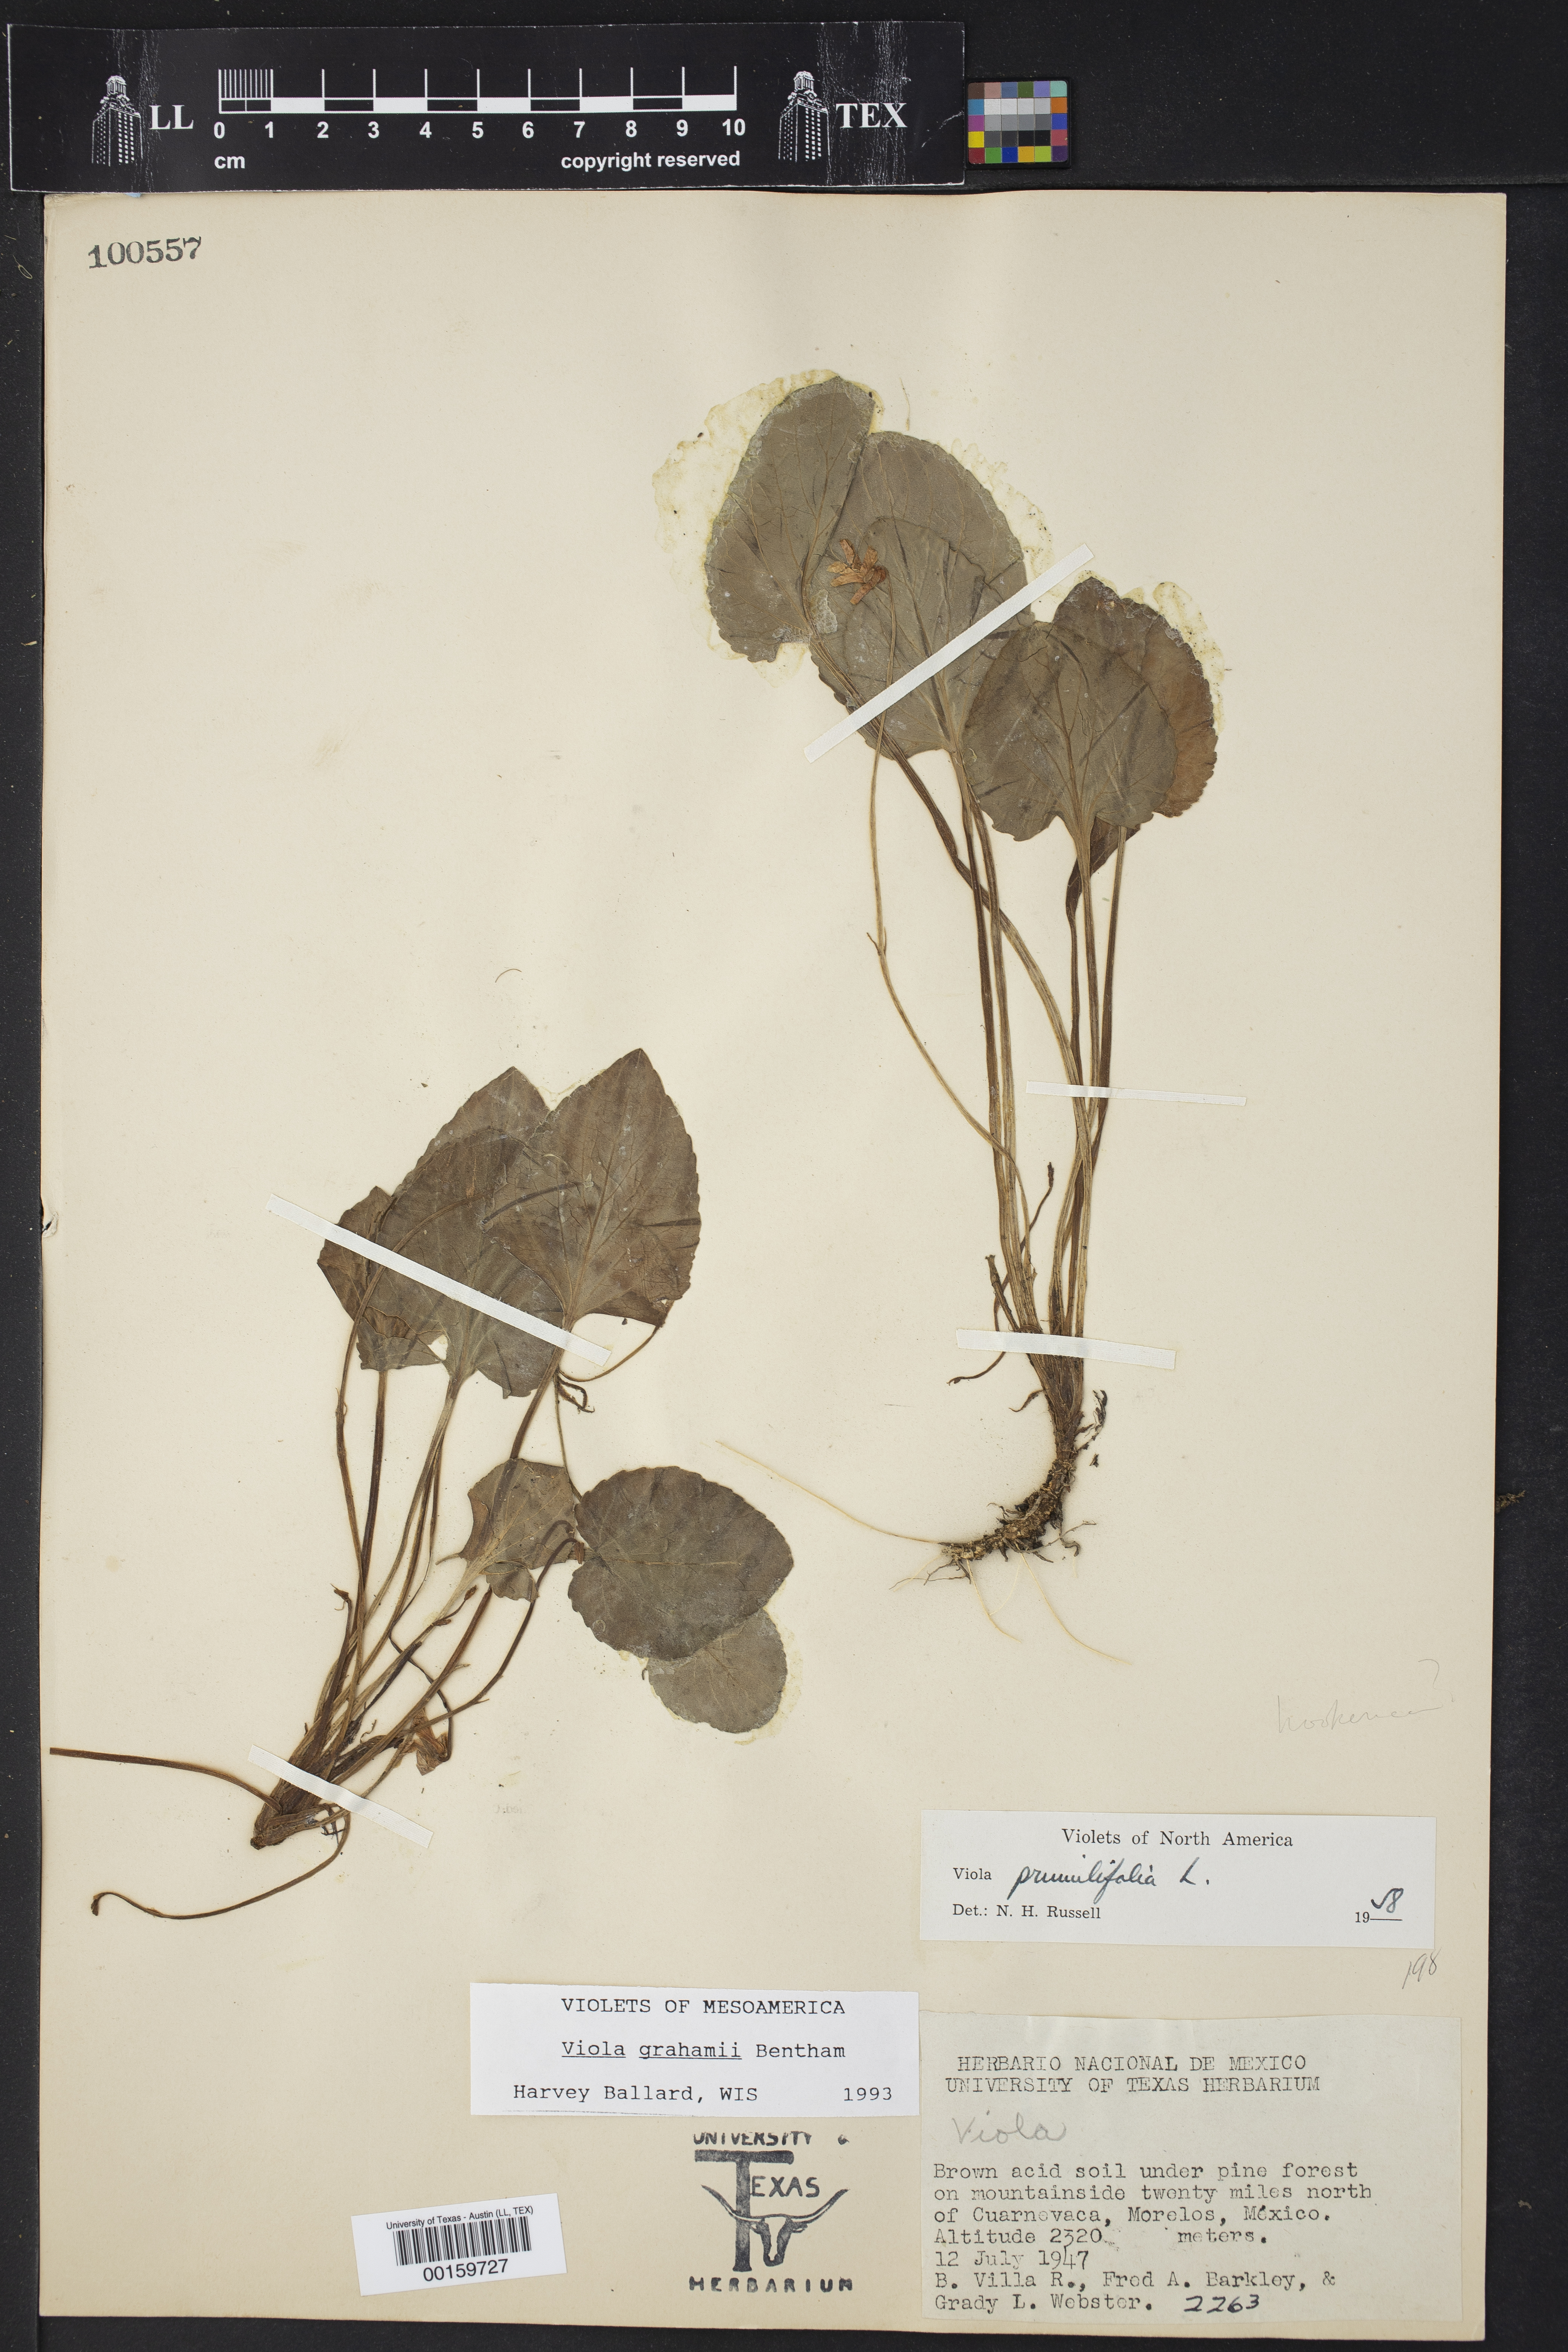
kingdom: Plantae
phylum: Tracheophyta
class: Magnoliopsida
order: Malpighiales
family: Violaceae
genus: Viola
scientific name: Viola grahamii
